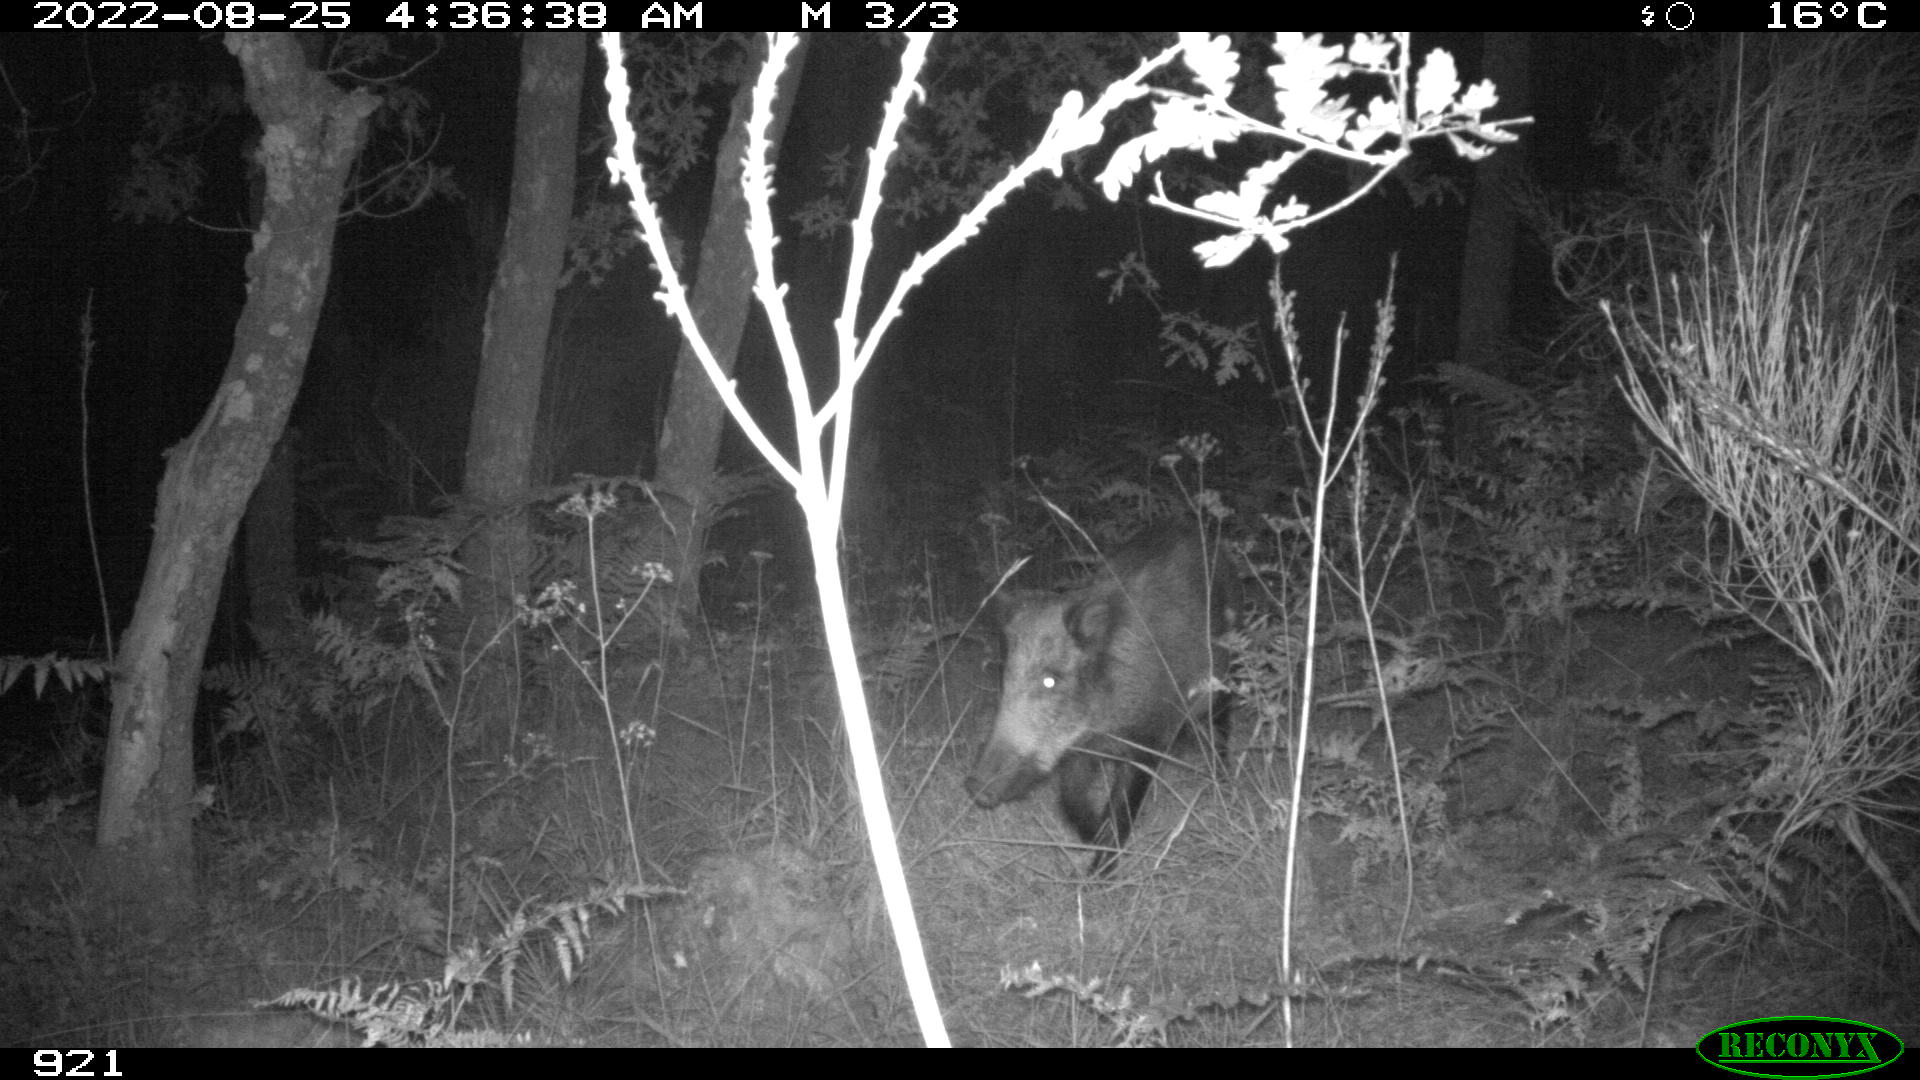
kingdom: Animalia
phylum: Chordata
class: Mammalia
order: Artiodactyla
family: Suidae
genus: Sus
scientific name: Sus scrofa
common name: Wild boar
